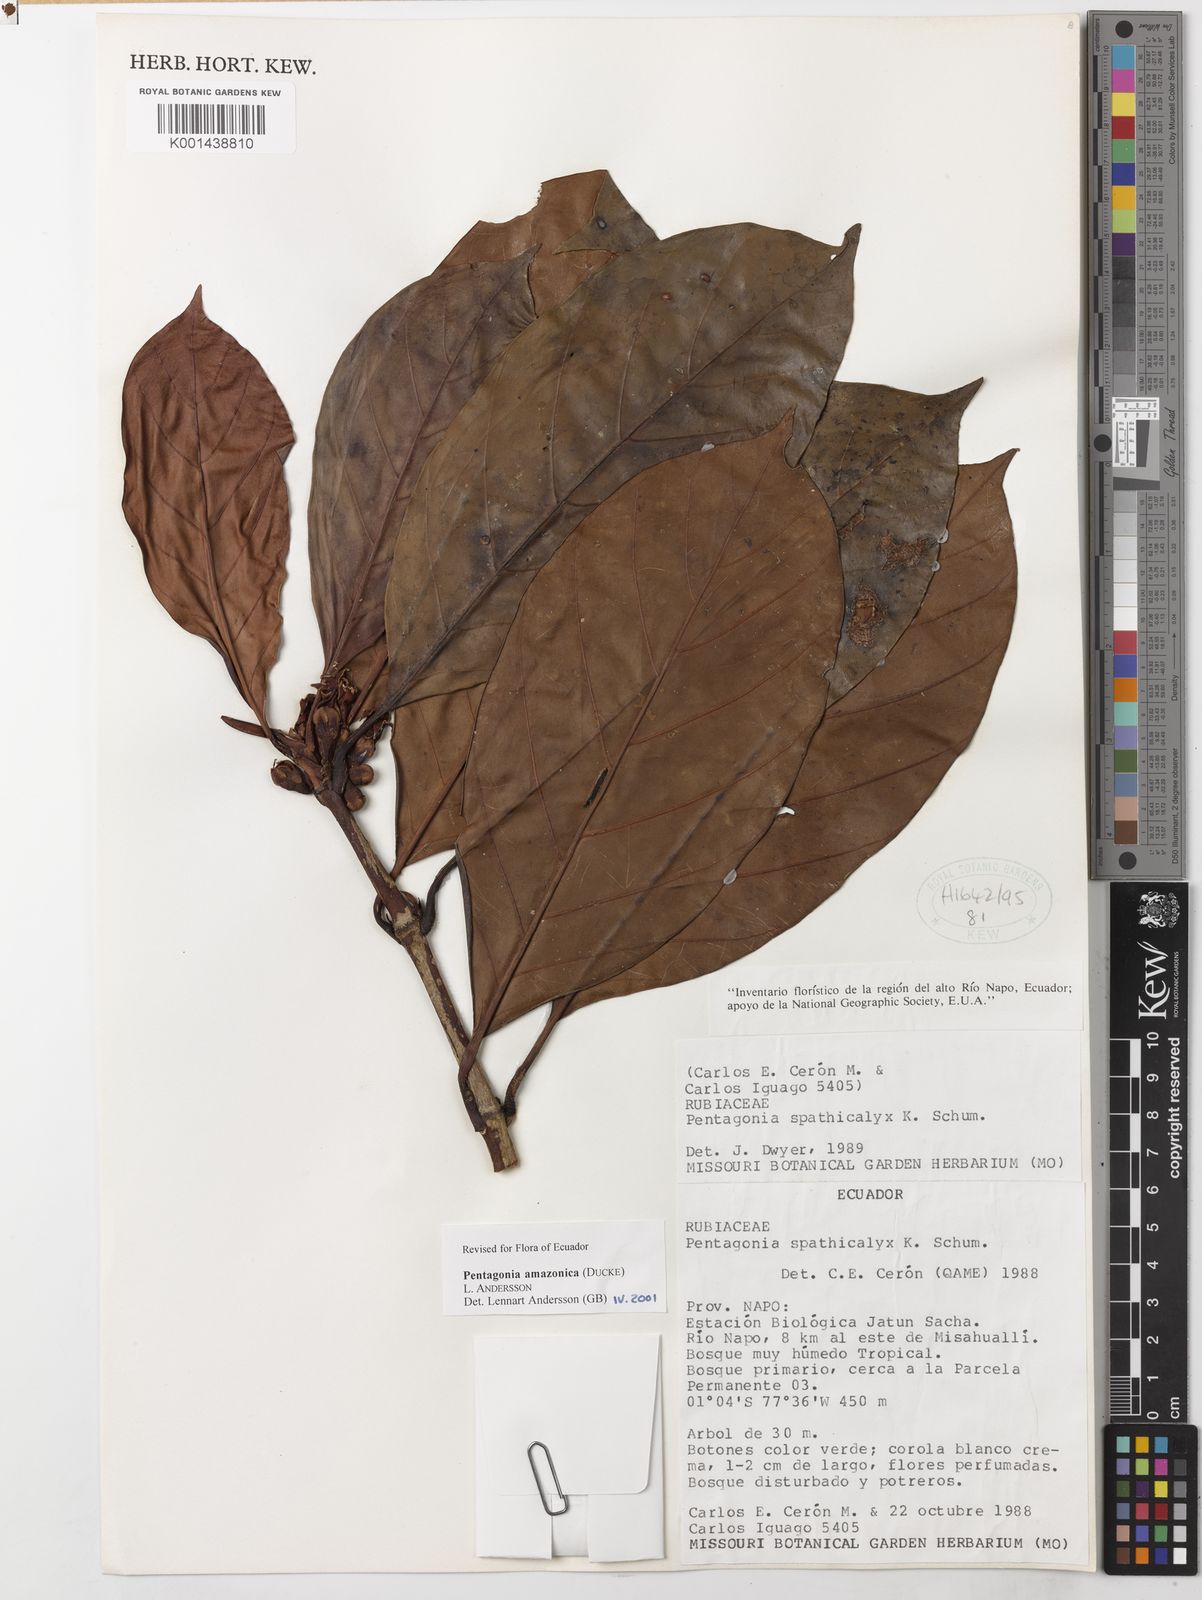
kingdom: Plantae
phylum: Tracheophyta
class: Magnoliopsida
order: Gentianales
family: Rubiaceae
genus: Pentagonia
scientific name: Pentagonia amazonica
